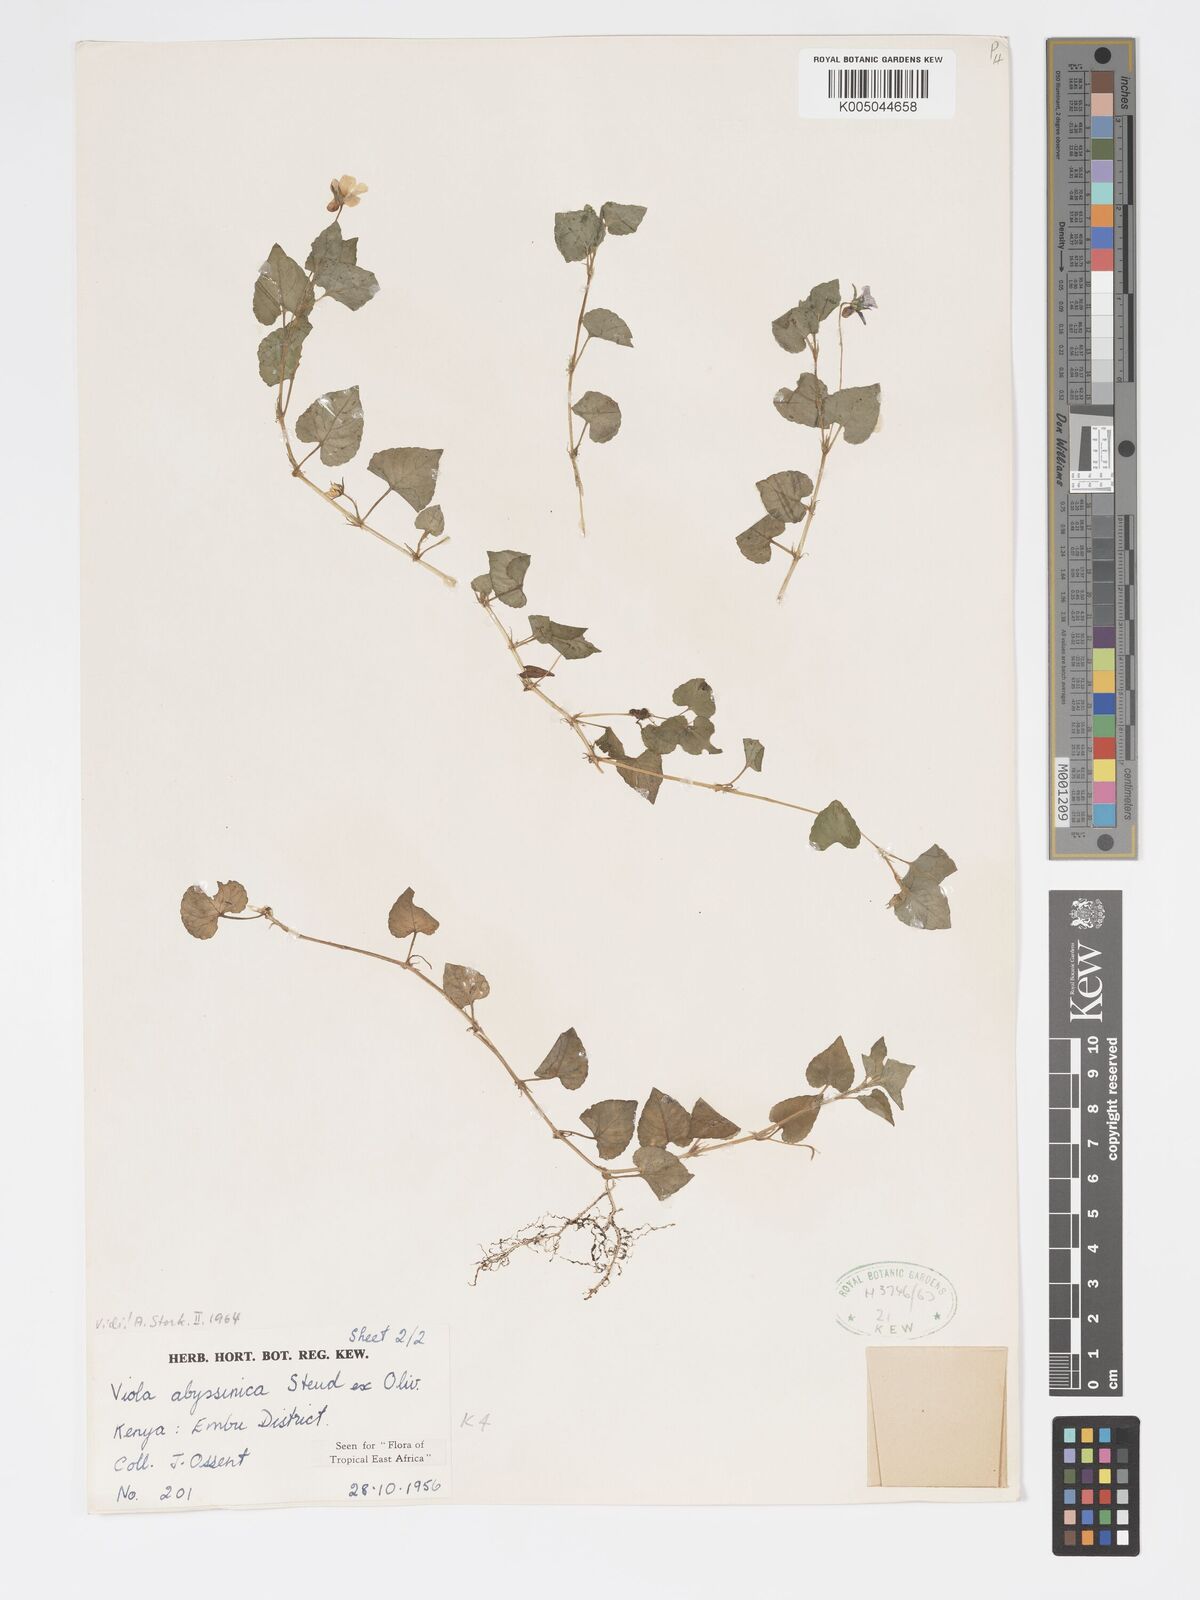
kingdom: Plantae
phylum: Tracheophyta
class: Magnoliopsida
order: Malpighiales
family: Violaceae
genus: Viola
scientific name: Viola abyssinica
